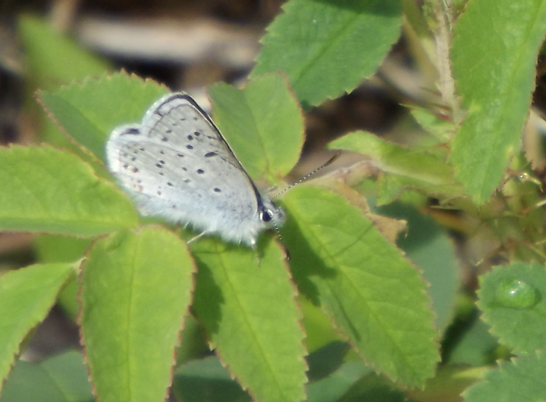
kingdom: Animalia
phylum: Arthropoda
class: Insecta
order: Lepidoptera
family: Lycaenidae
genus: Plebejus
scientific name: Plebejus saepiolus
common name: Greenish Blue
